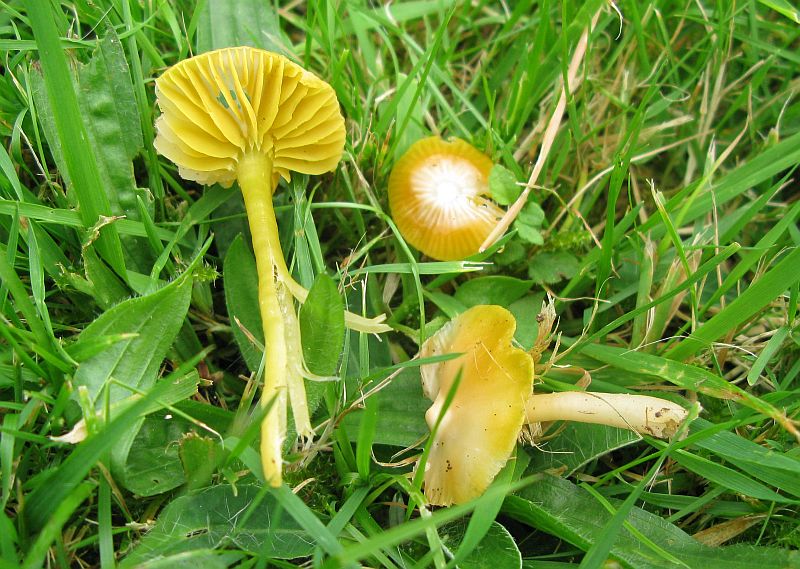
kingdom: Fungi
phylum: Basidiomycota
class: Agaricomycetes
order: Agaricales
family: Hygrophoraceae
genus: Gliophorus
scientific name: Gliophorus psittacinus
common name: papegøje-vokshat
